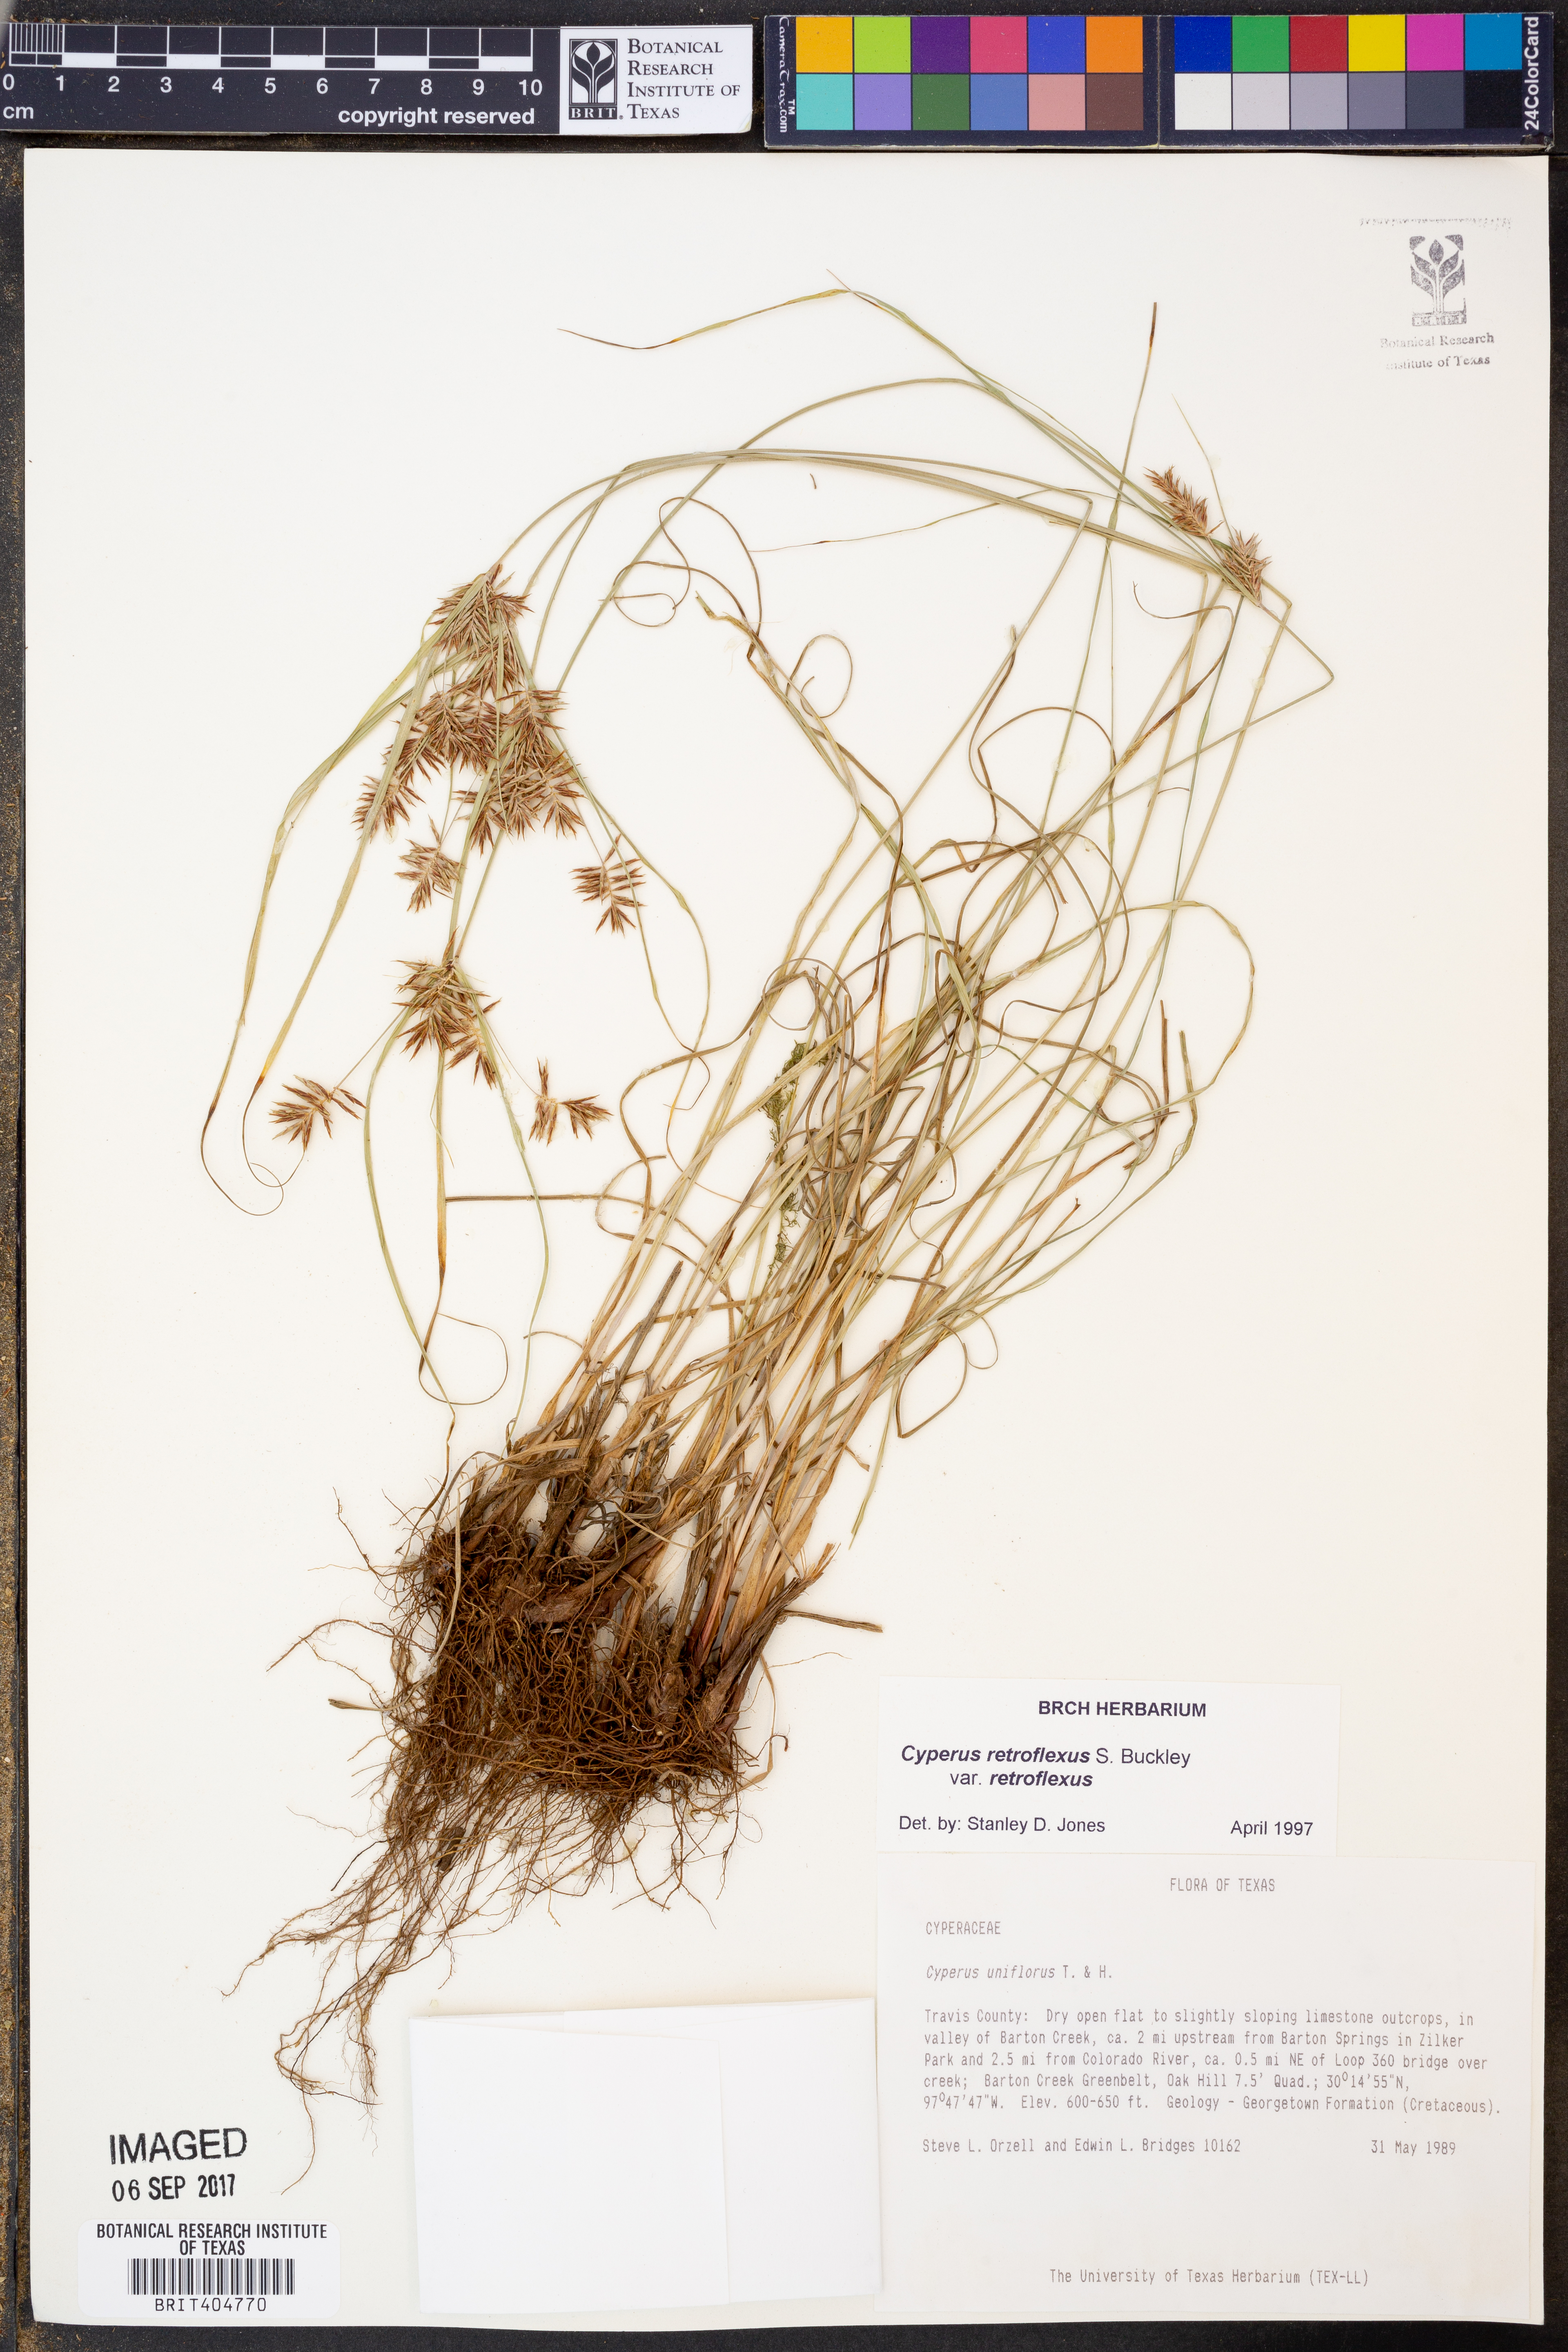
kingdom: Plantae
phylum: Tracheophyta
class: Liliopsida
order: Poales
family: Cyperaceae
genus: Cyperus
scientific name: Cyperus retroflexus
